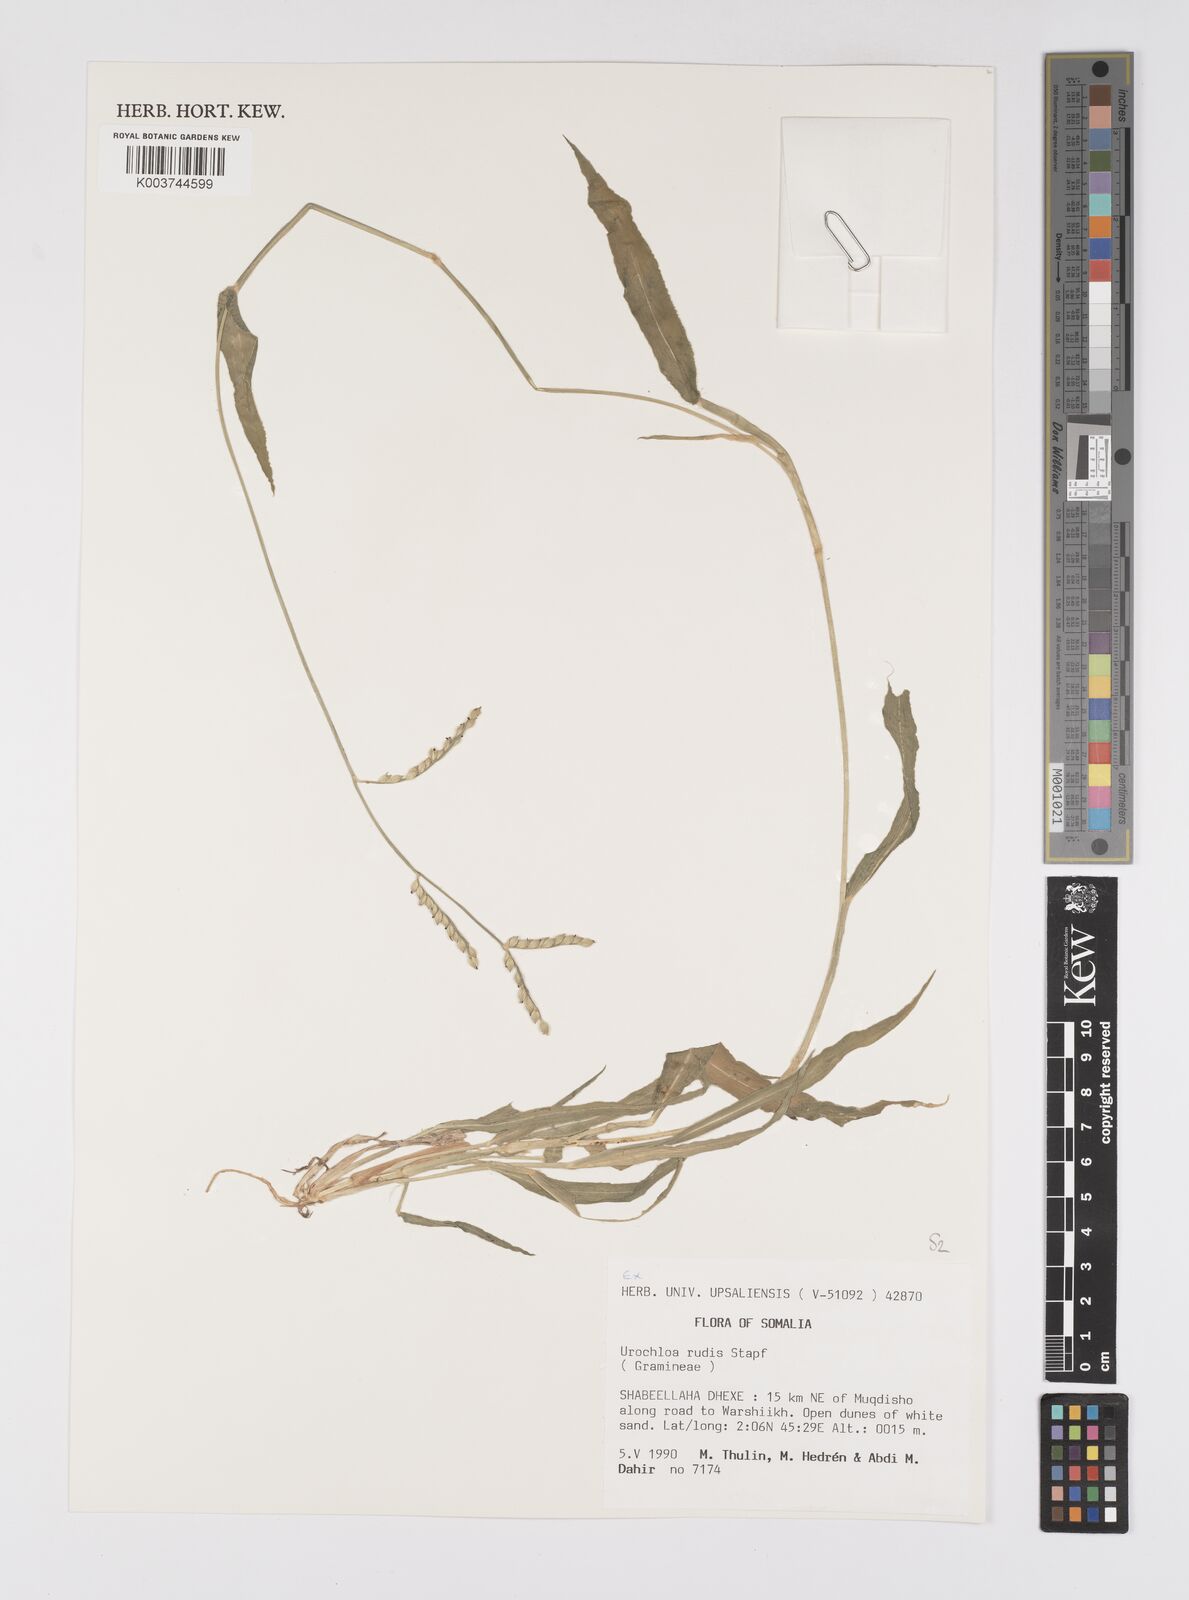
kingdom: Plantae
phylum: Tracheophyta
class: Liliopsida
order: Poales
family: Poaceae
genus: Urochloa
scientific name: Urochloa rudis
